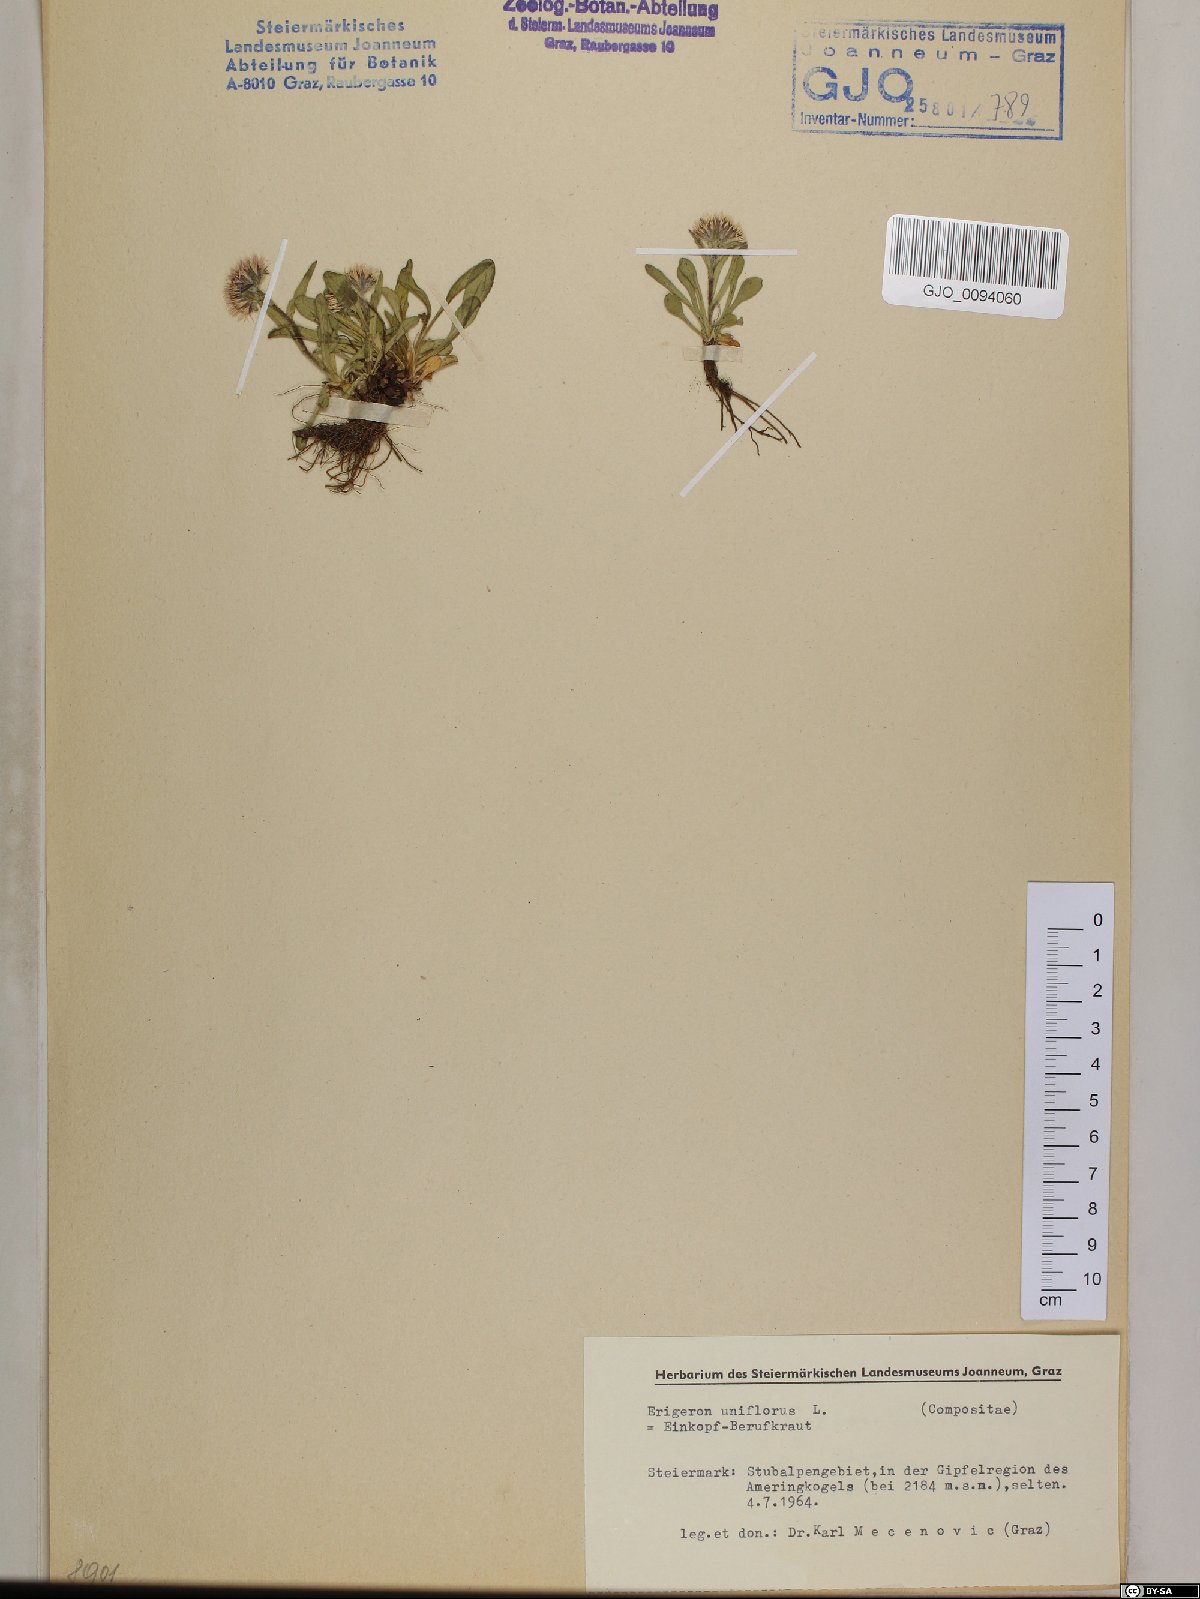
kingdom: Plantae
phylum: Tracheophyta
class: Magnoliopsida
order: Asterales
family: Asteraceae
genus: Erigeron
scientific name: Erigeron uniflorus
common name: Northern daisy
